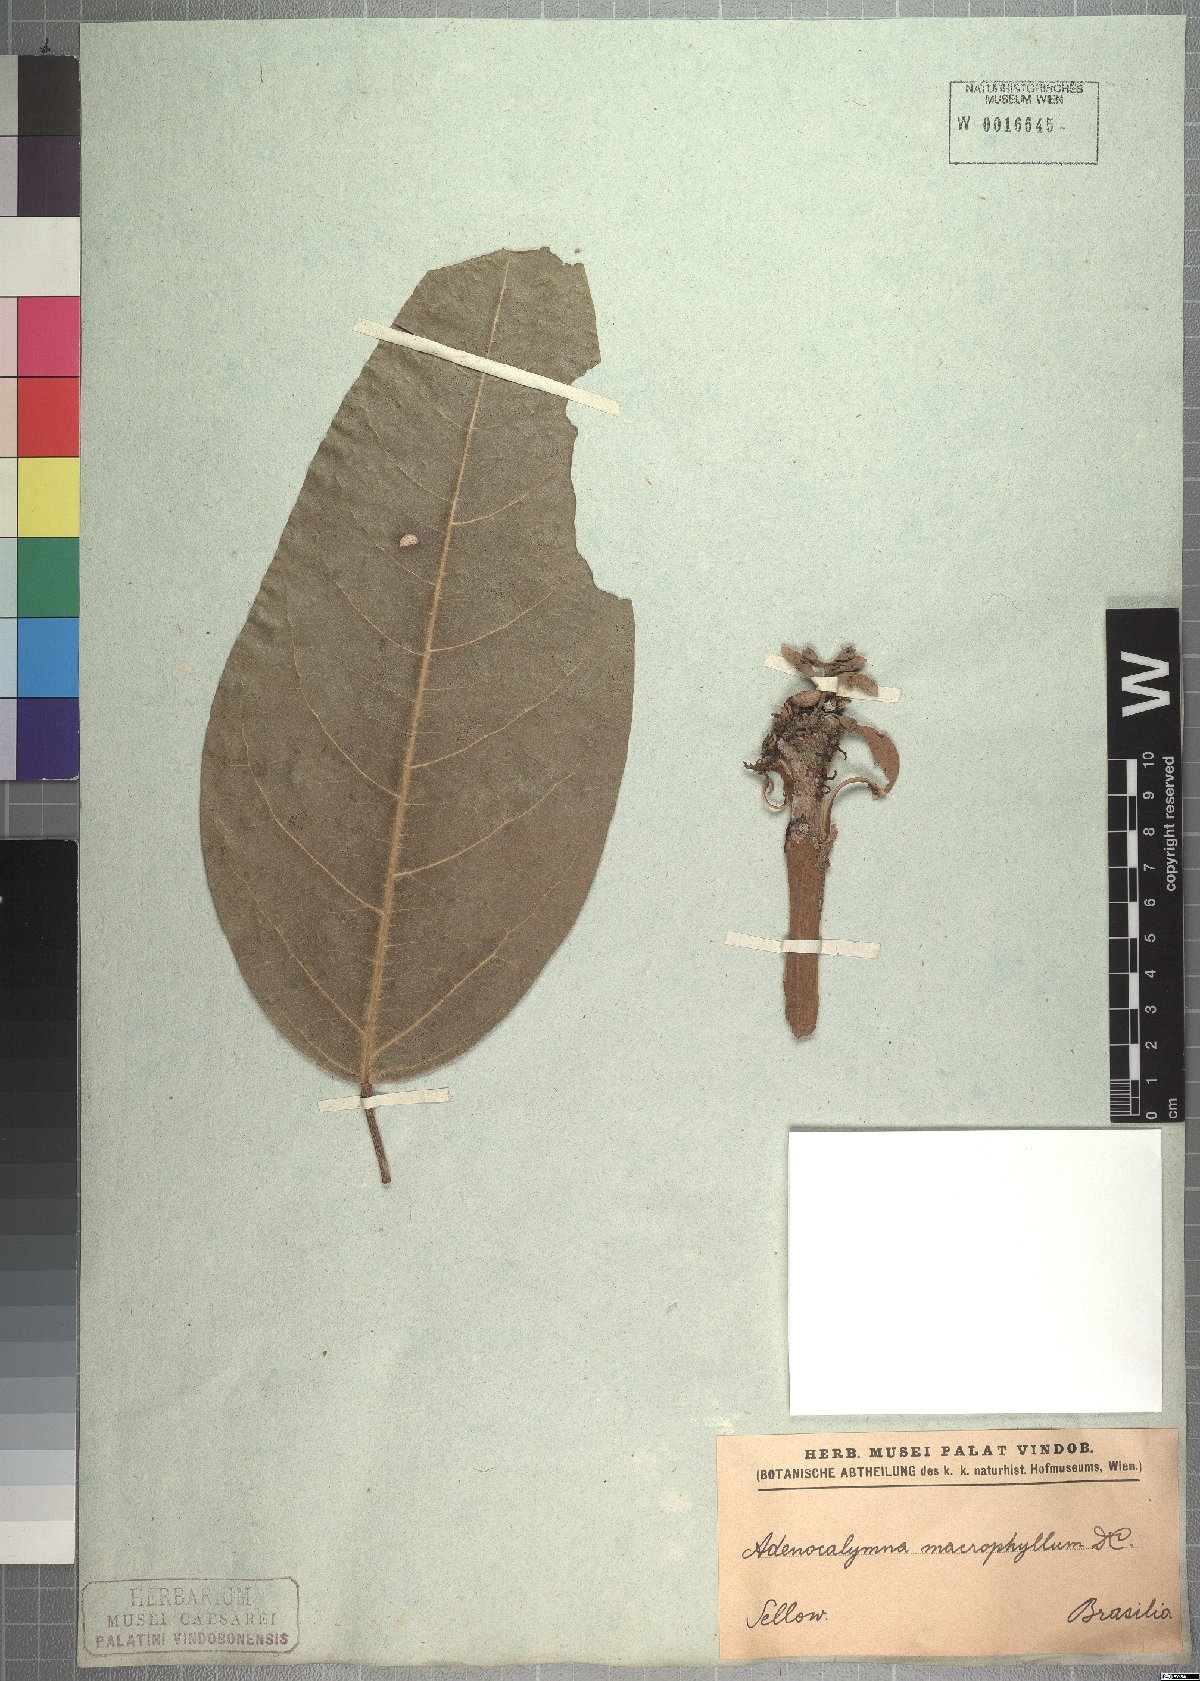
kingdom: Plantae
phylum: Tracheophyta
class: Magnoliopsida
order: Lamiales
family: Bignoniaceae
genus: Adenocalymma
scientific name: Adenocalymma ternatum
